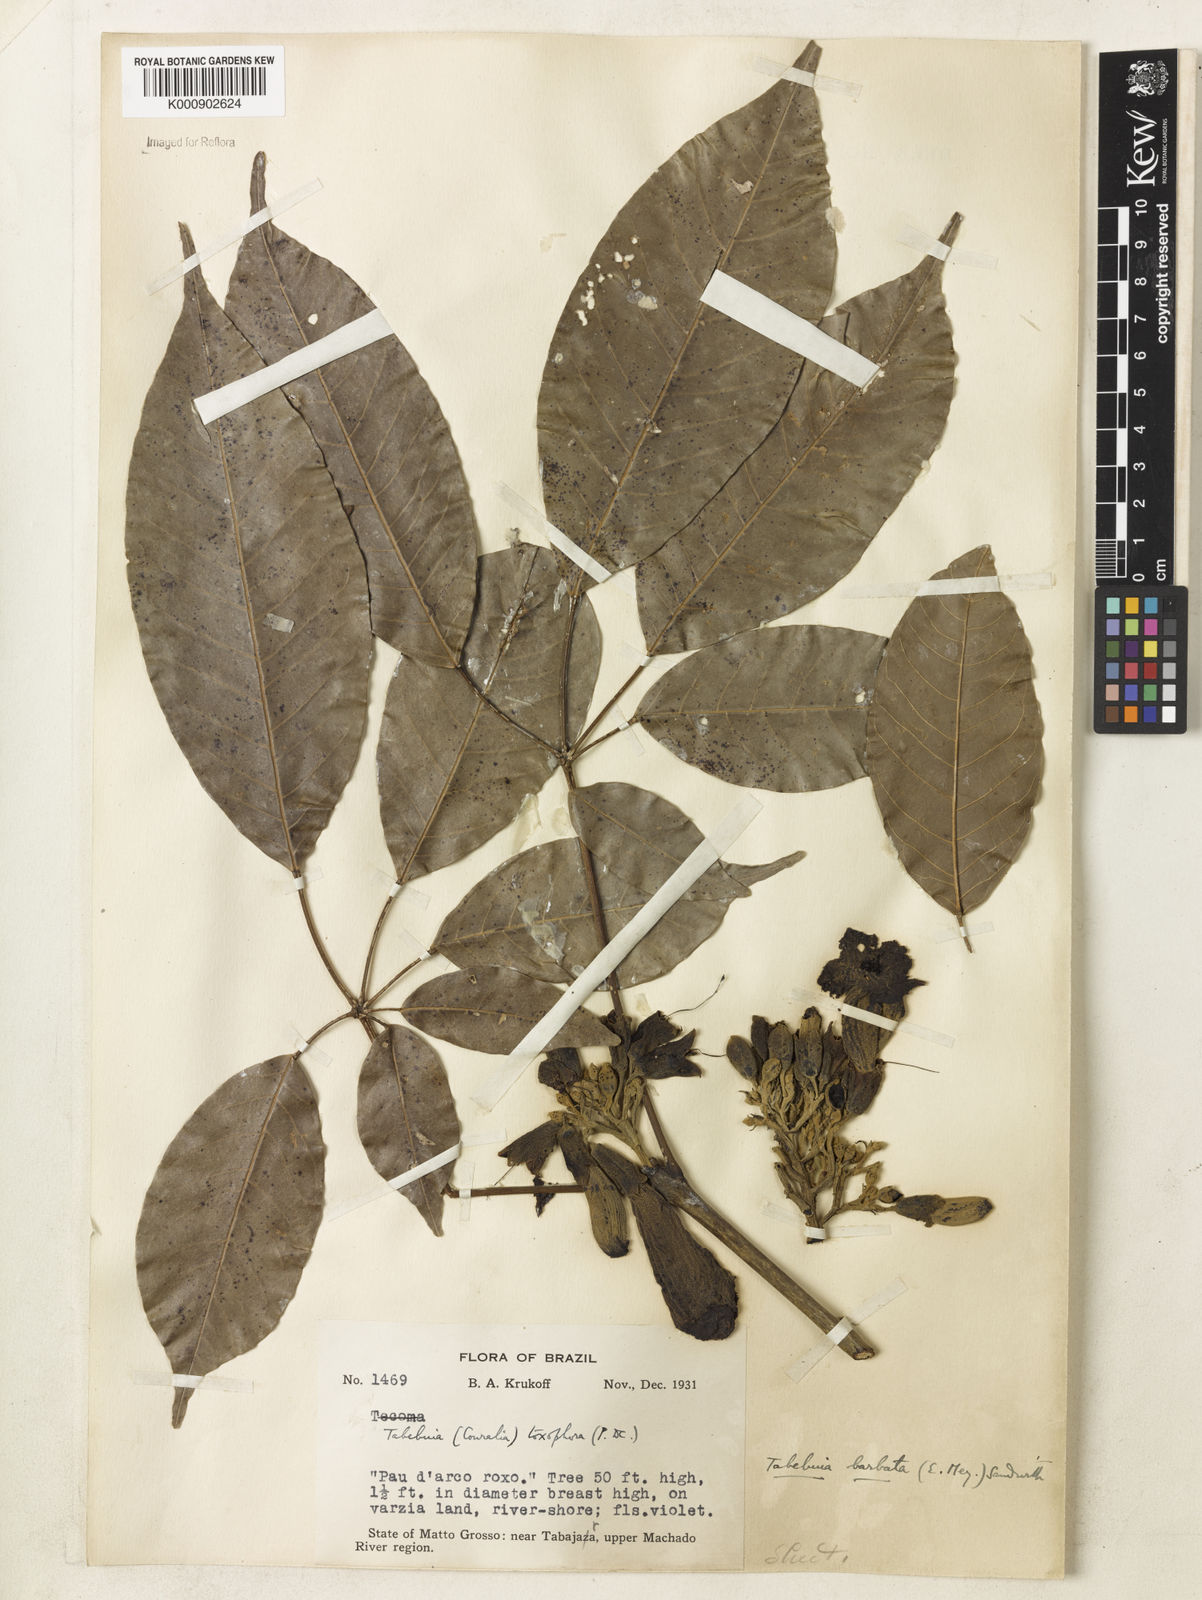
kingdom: Plantae
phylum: Tracheophyta
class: Magnoliopsida
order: Lamiales
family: Bignoniaceae
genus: Handroanthus
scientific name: Handroanthus barbatus
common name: Trumpet trees
